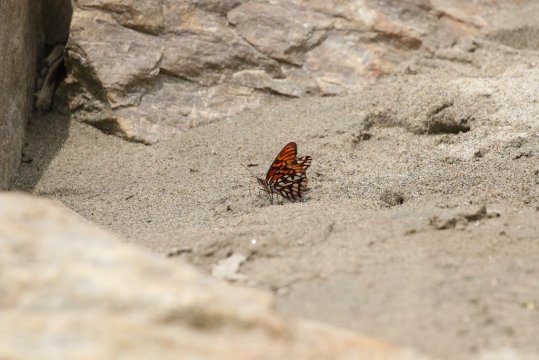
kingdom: Animalia
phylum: Arthropoda
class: Insecta
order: Lepidoptera
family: Nymphalidae
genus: Dione
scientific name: Dione glycera
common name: Andean Silverspot
